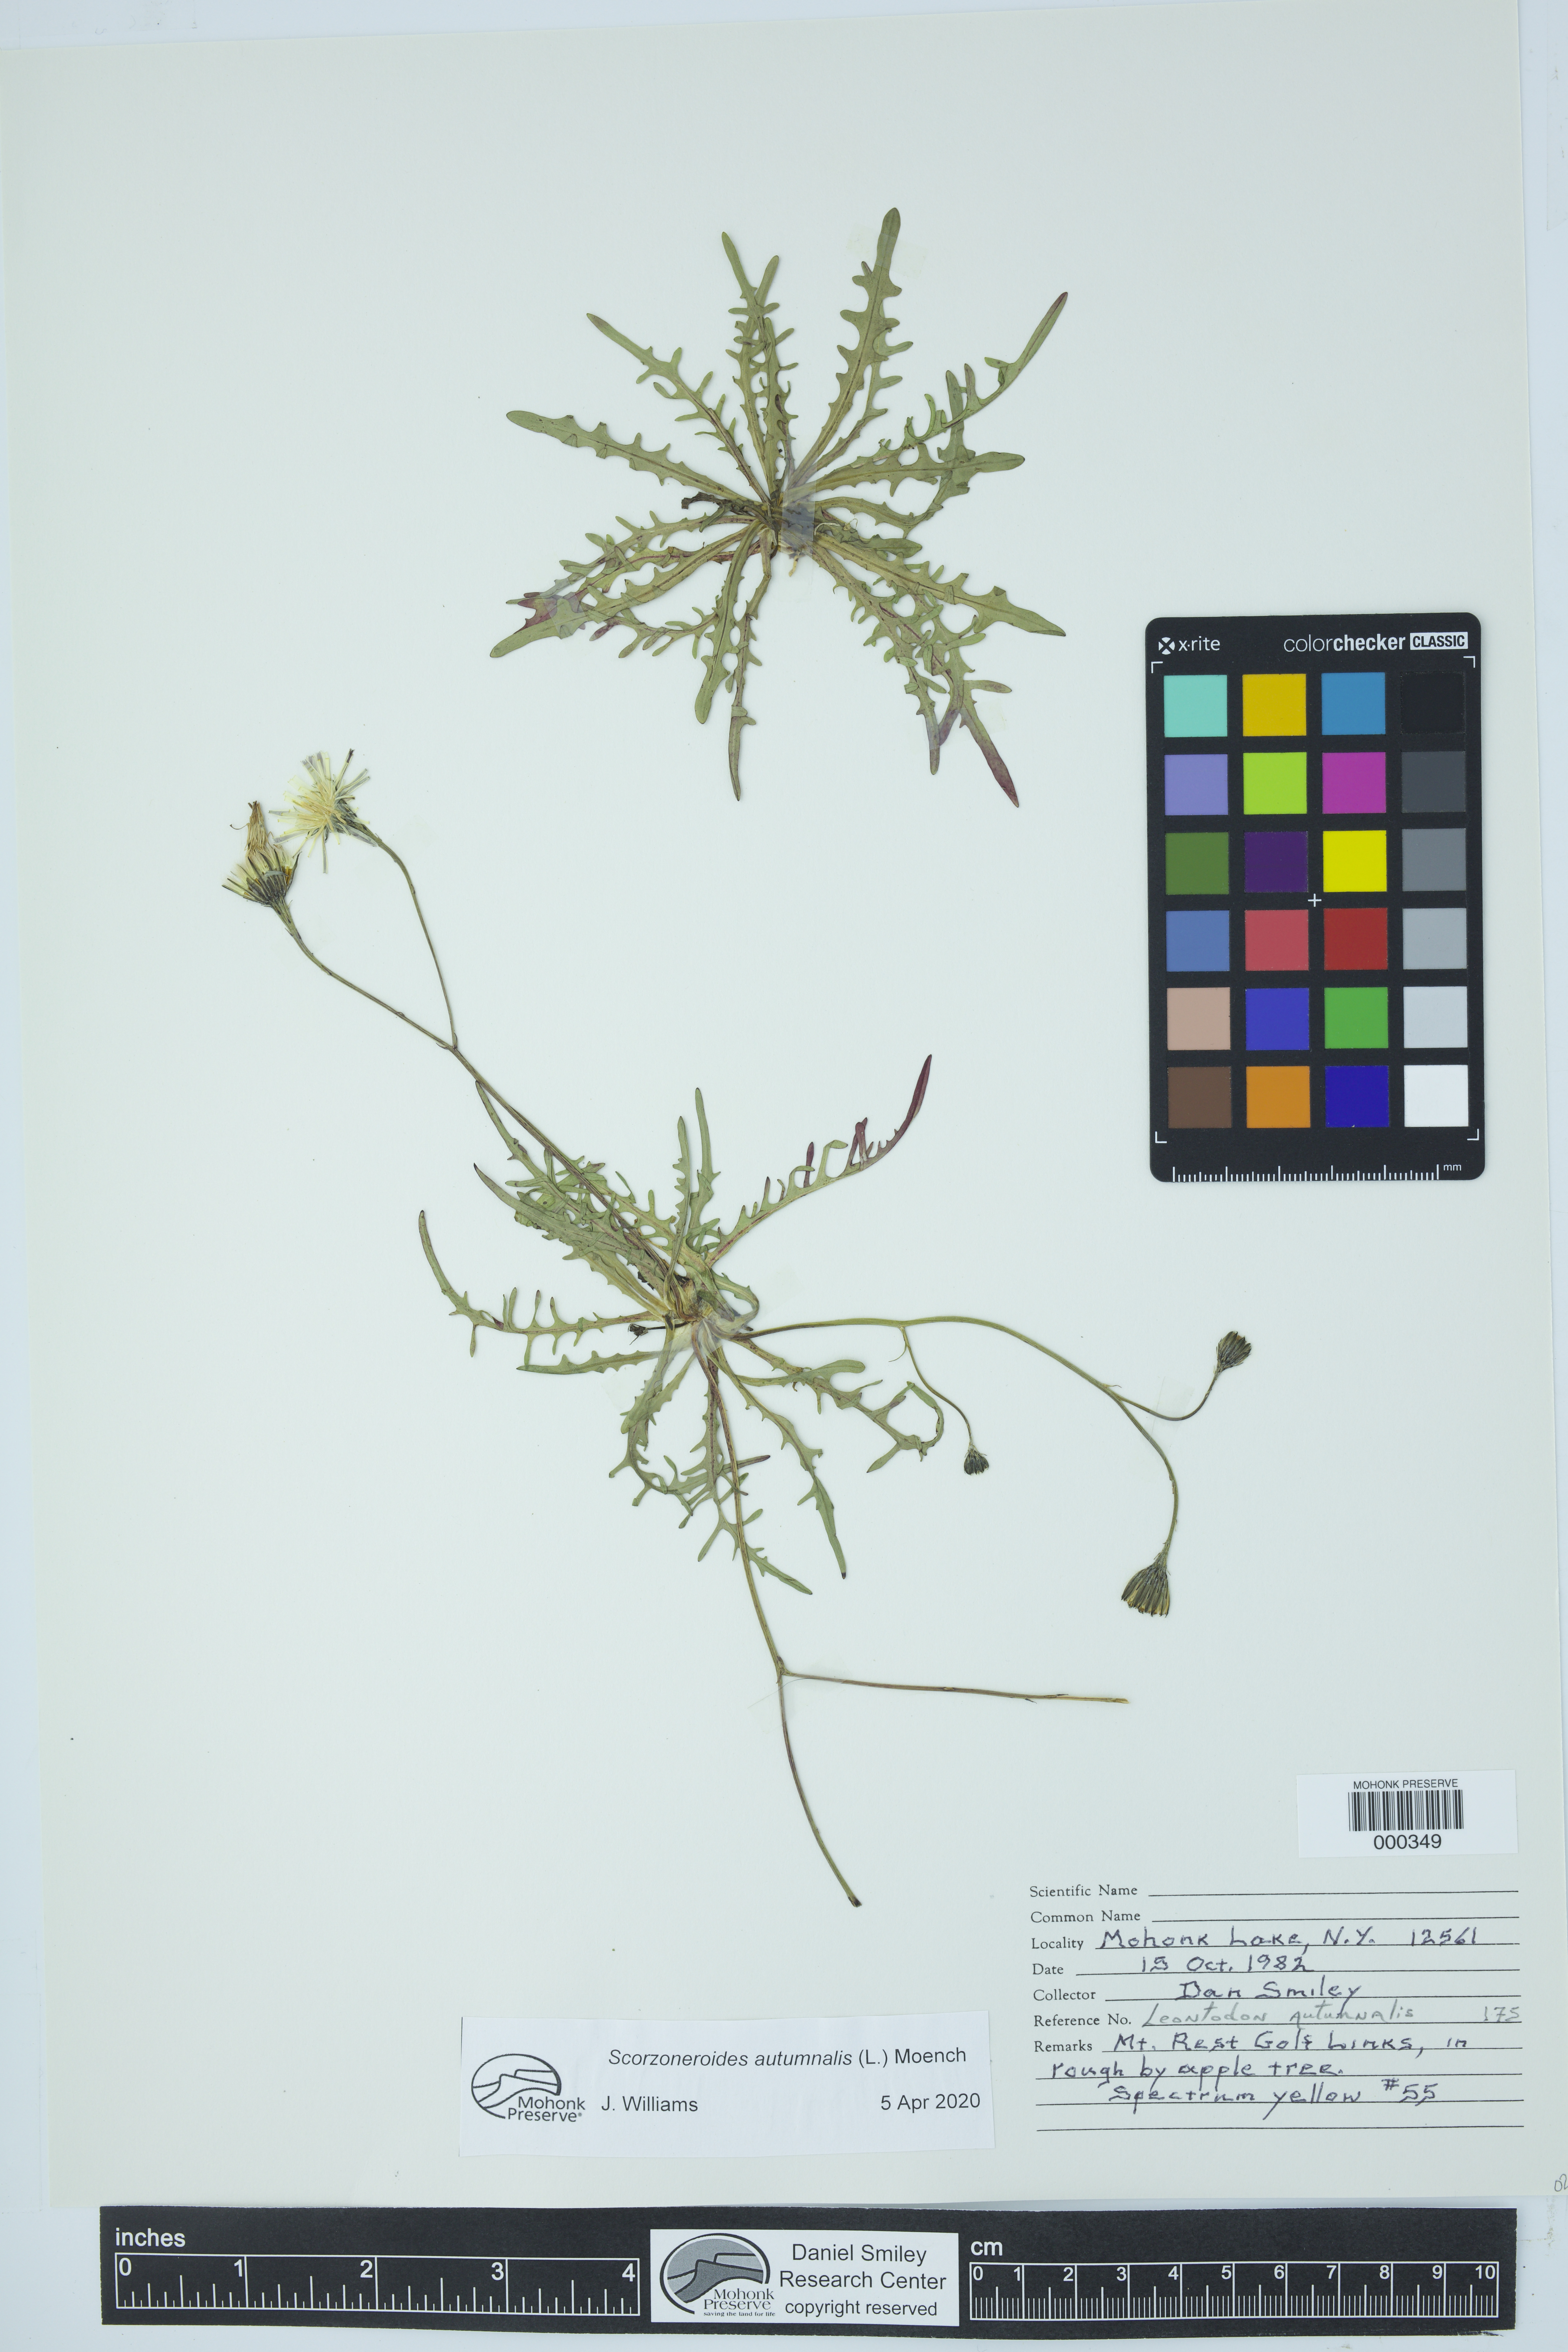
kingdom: Plantae
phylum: Tracheophyta
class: Magnoliopsida
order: Asterales
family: Asteraceae
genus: Scorzoneroides
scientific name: Scorzoneroides autumnalis
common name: Autumn hawkbit
